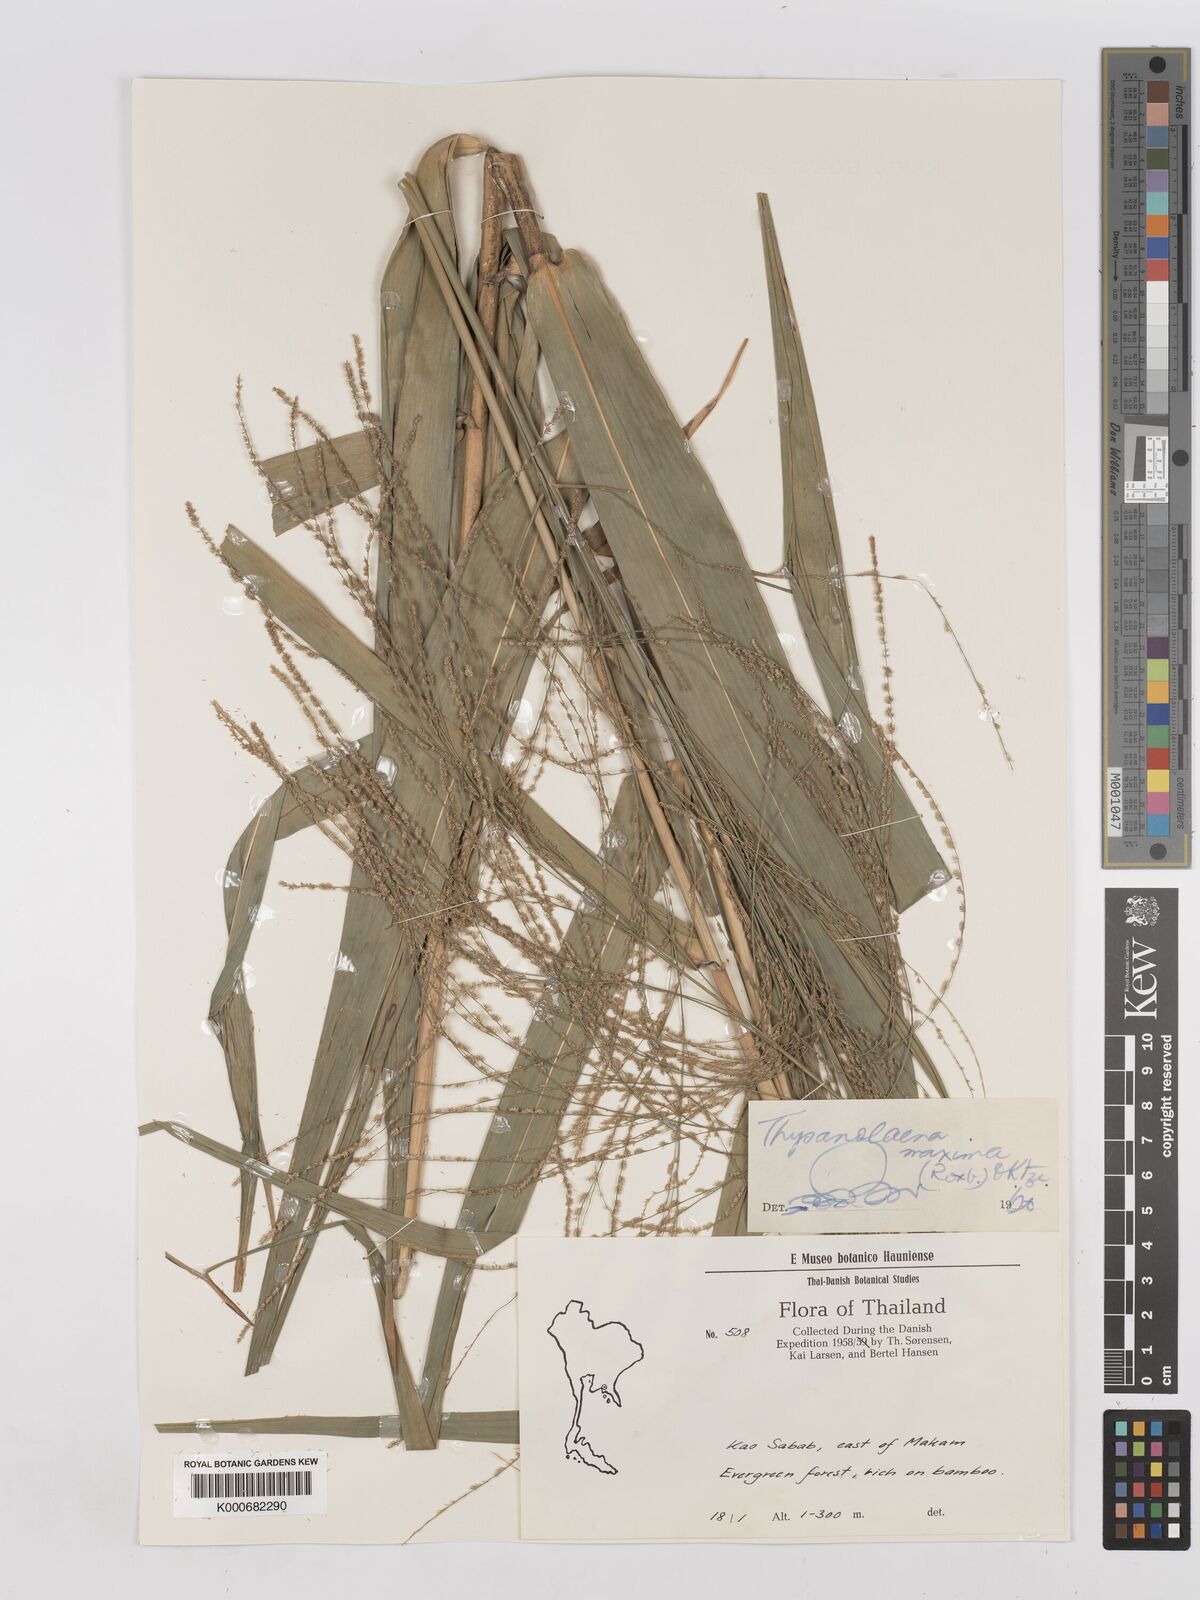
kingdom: Plantae
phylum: Tracheophyta
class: Liliopsida
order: Poales
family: Poaceae
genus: Thysanolaena
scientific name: Thysanolaena latifolia
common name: Tiger grass
